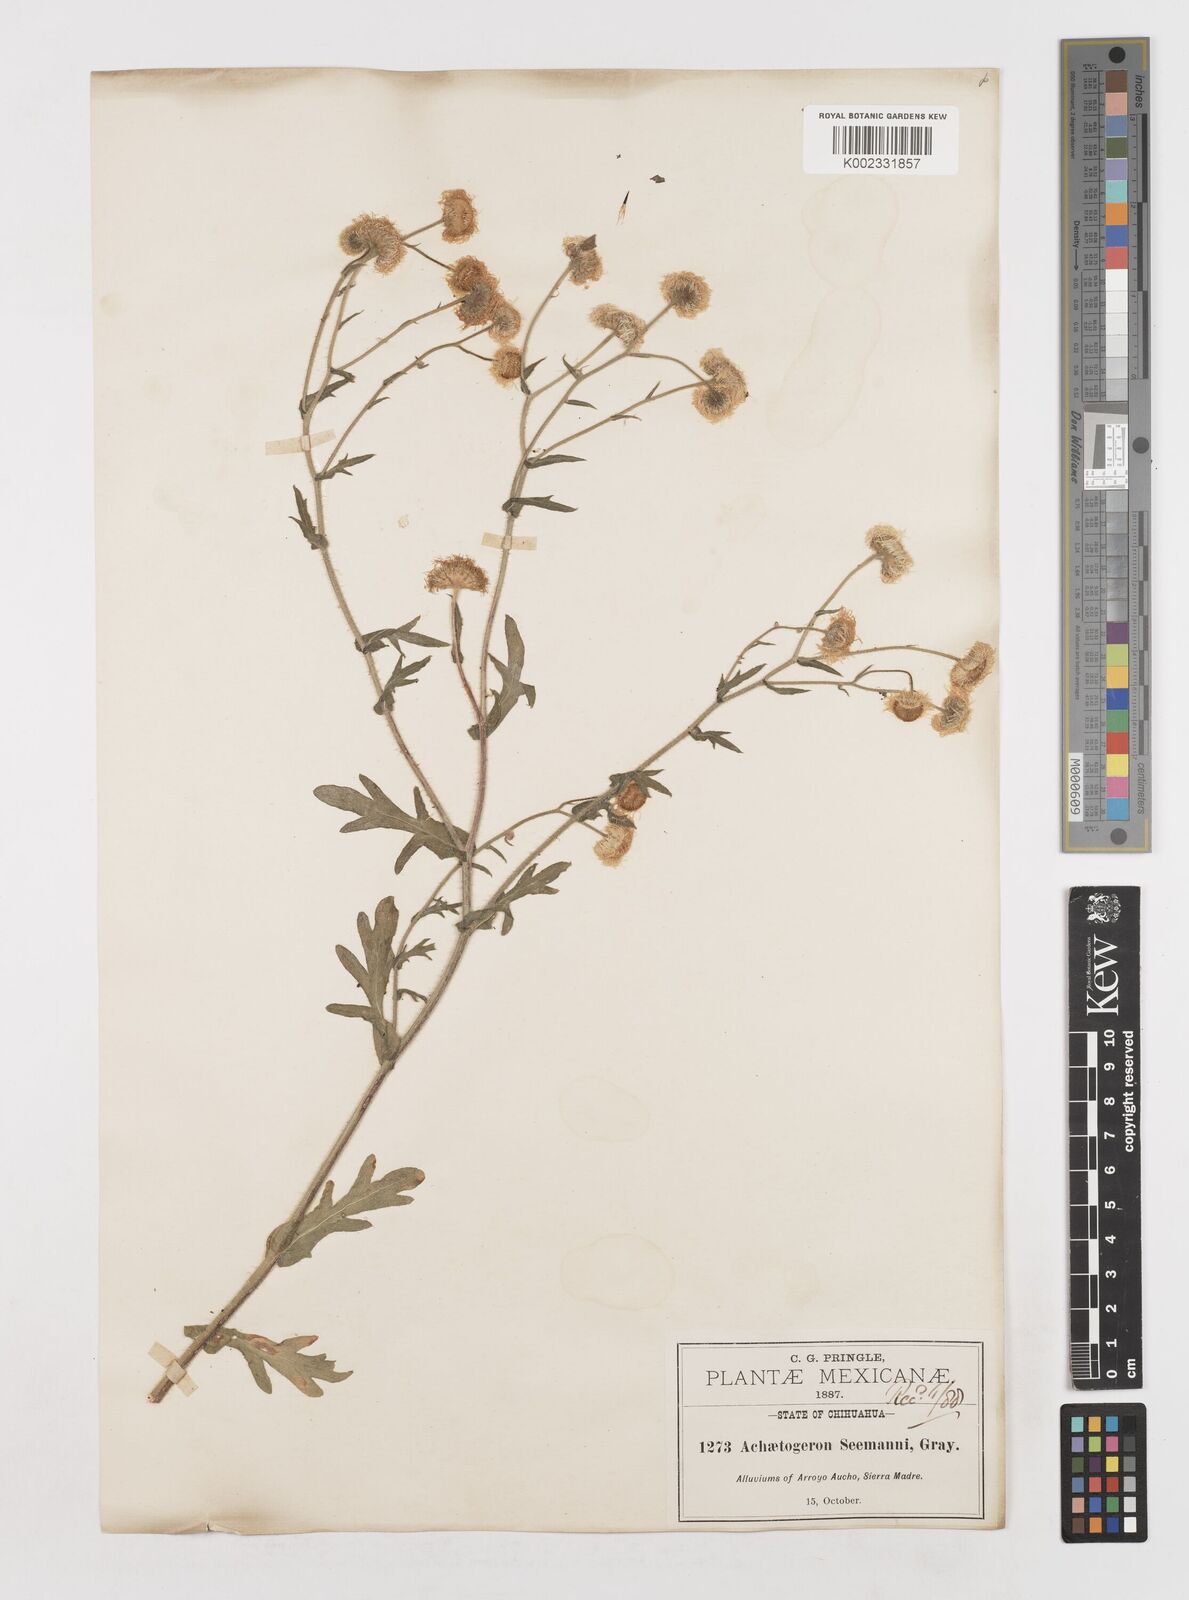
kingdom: Plantae
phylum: Tracheophyta
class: Magnoliopsida
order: Asterales
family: Asteraceae
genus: Erigeron
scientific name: Erigeron seemannii
